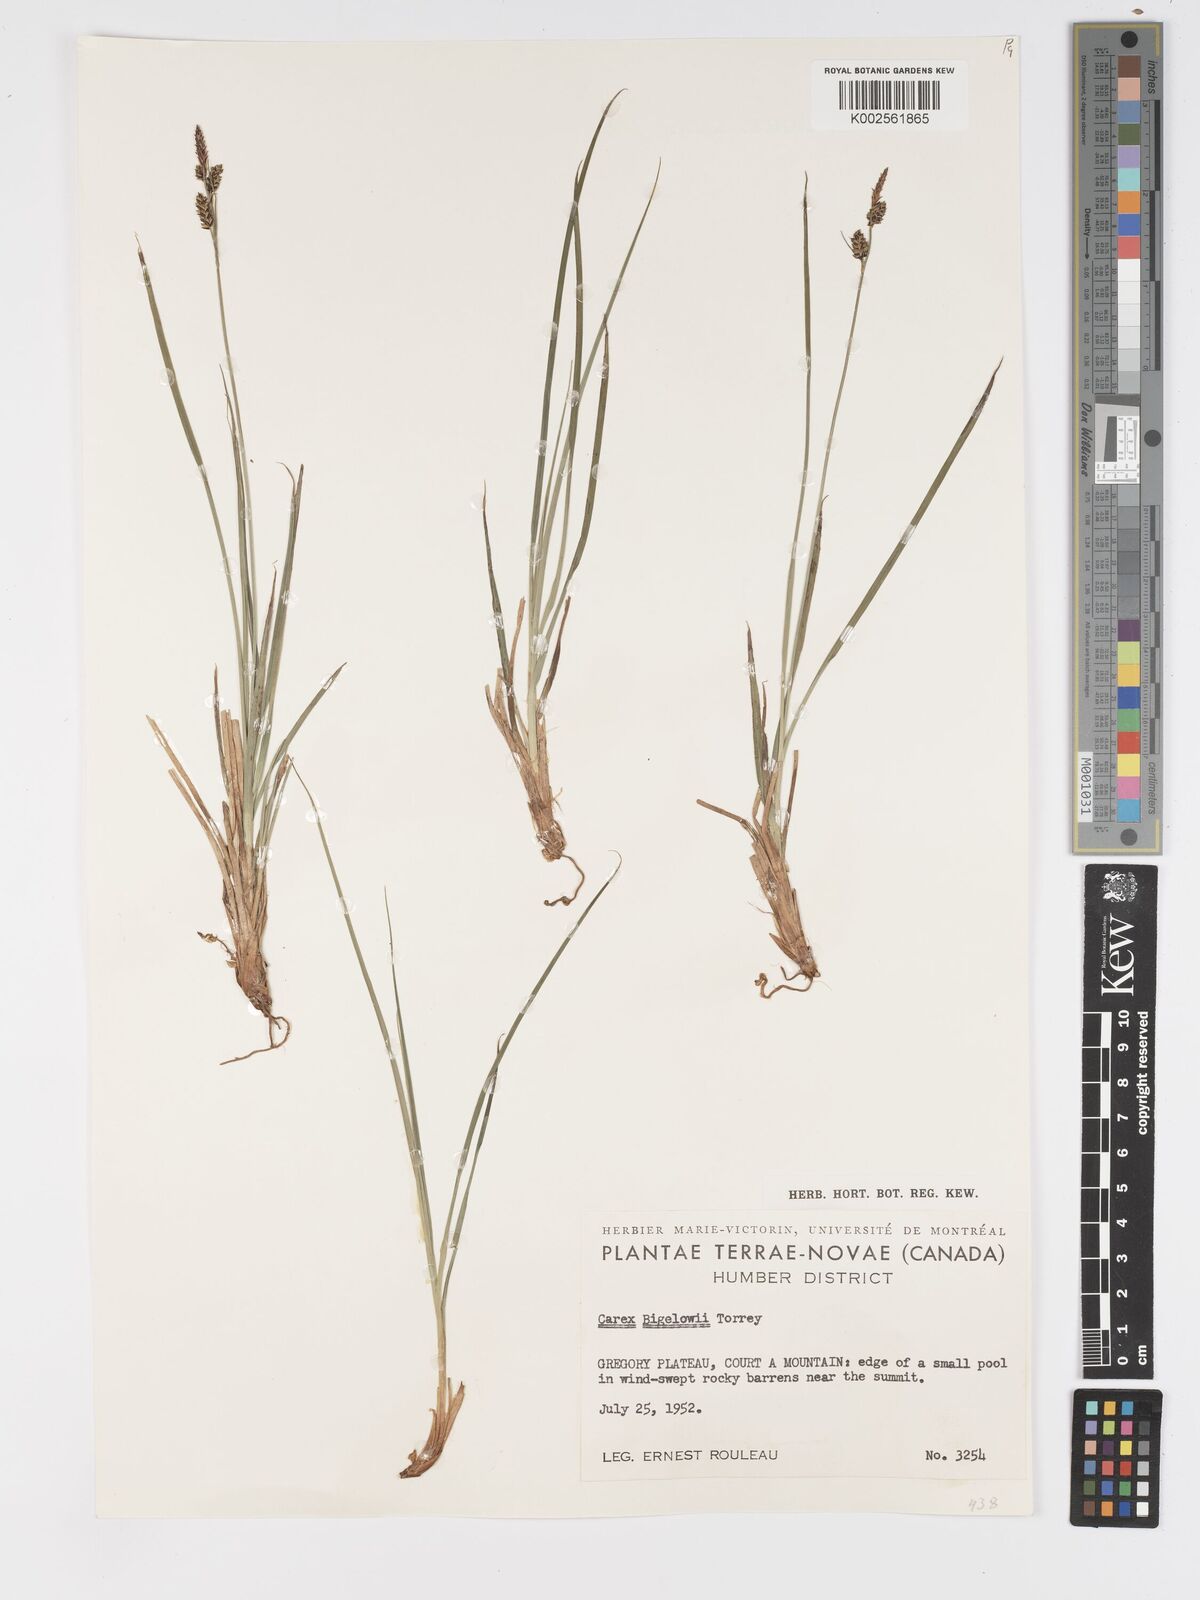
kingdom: Plantae
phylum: Tracheophyta
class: Liliopsida
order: Poales
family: Cyperaceae
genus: Carex
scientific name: Carex bigelowii
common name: Stiff sedge
